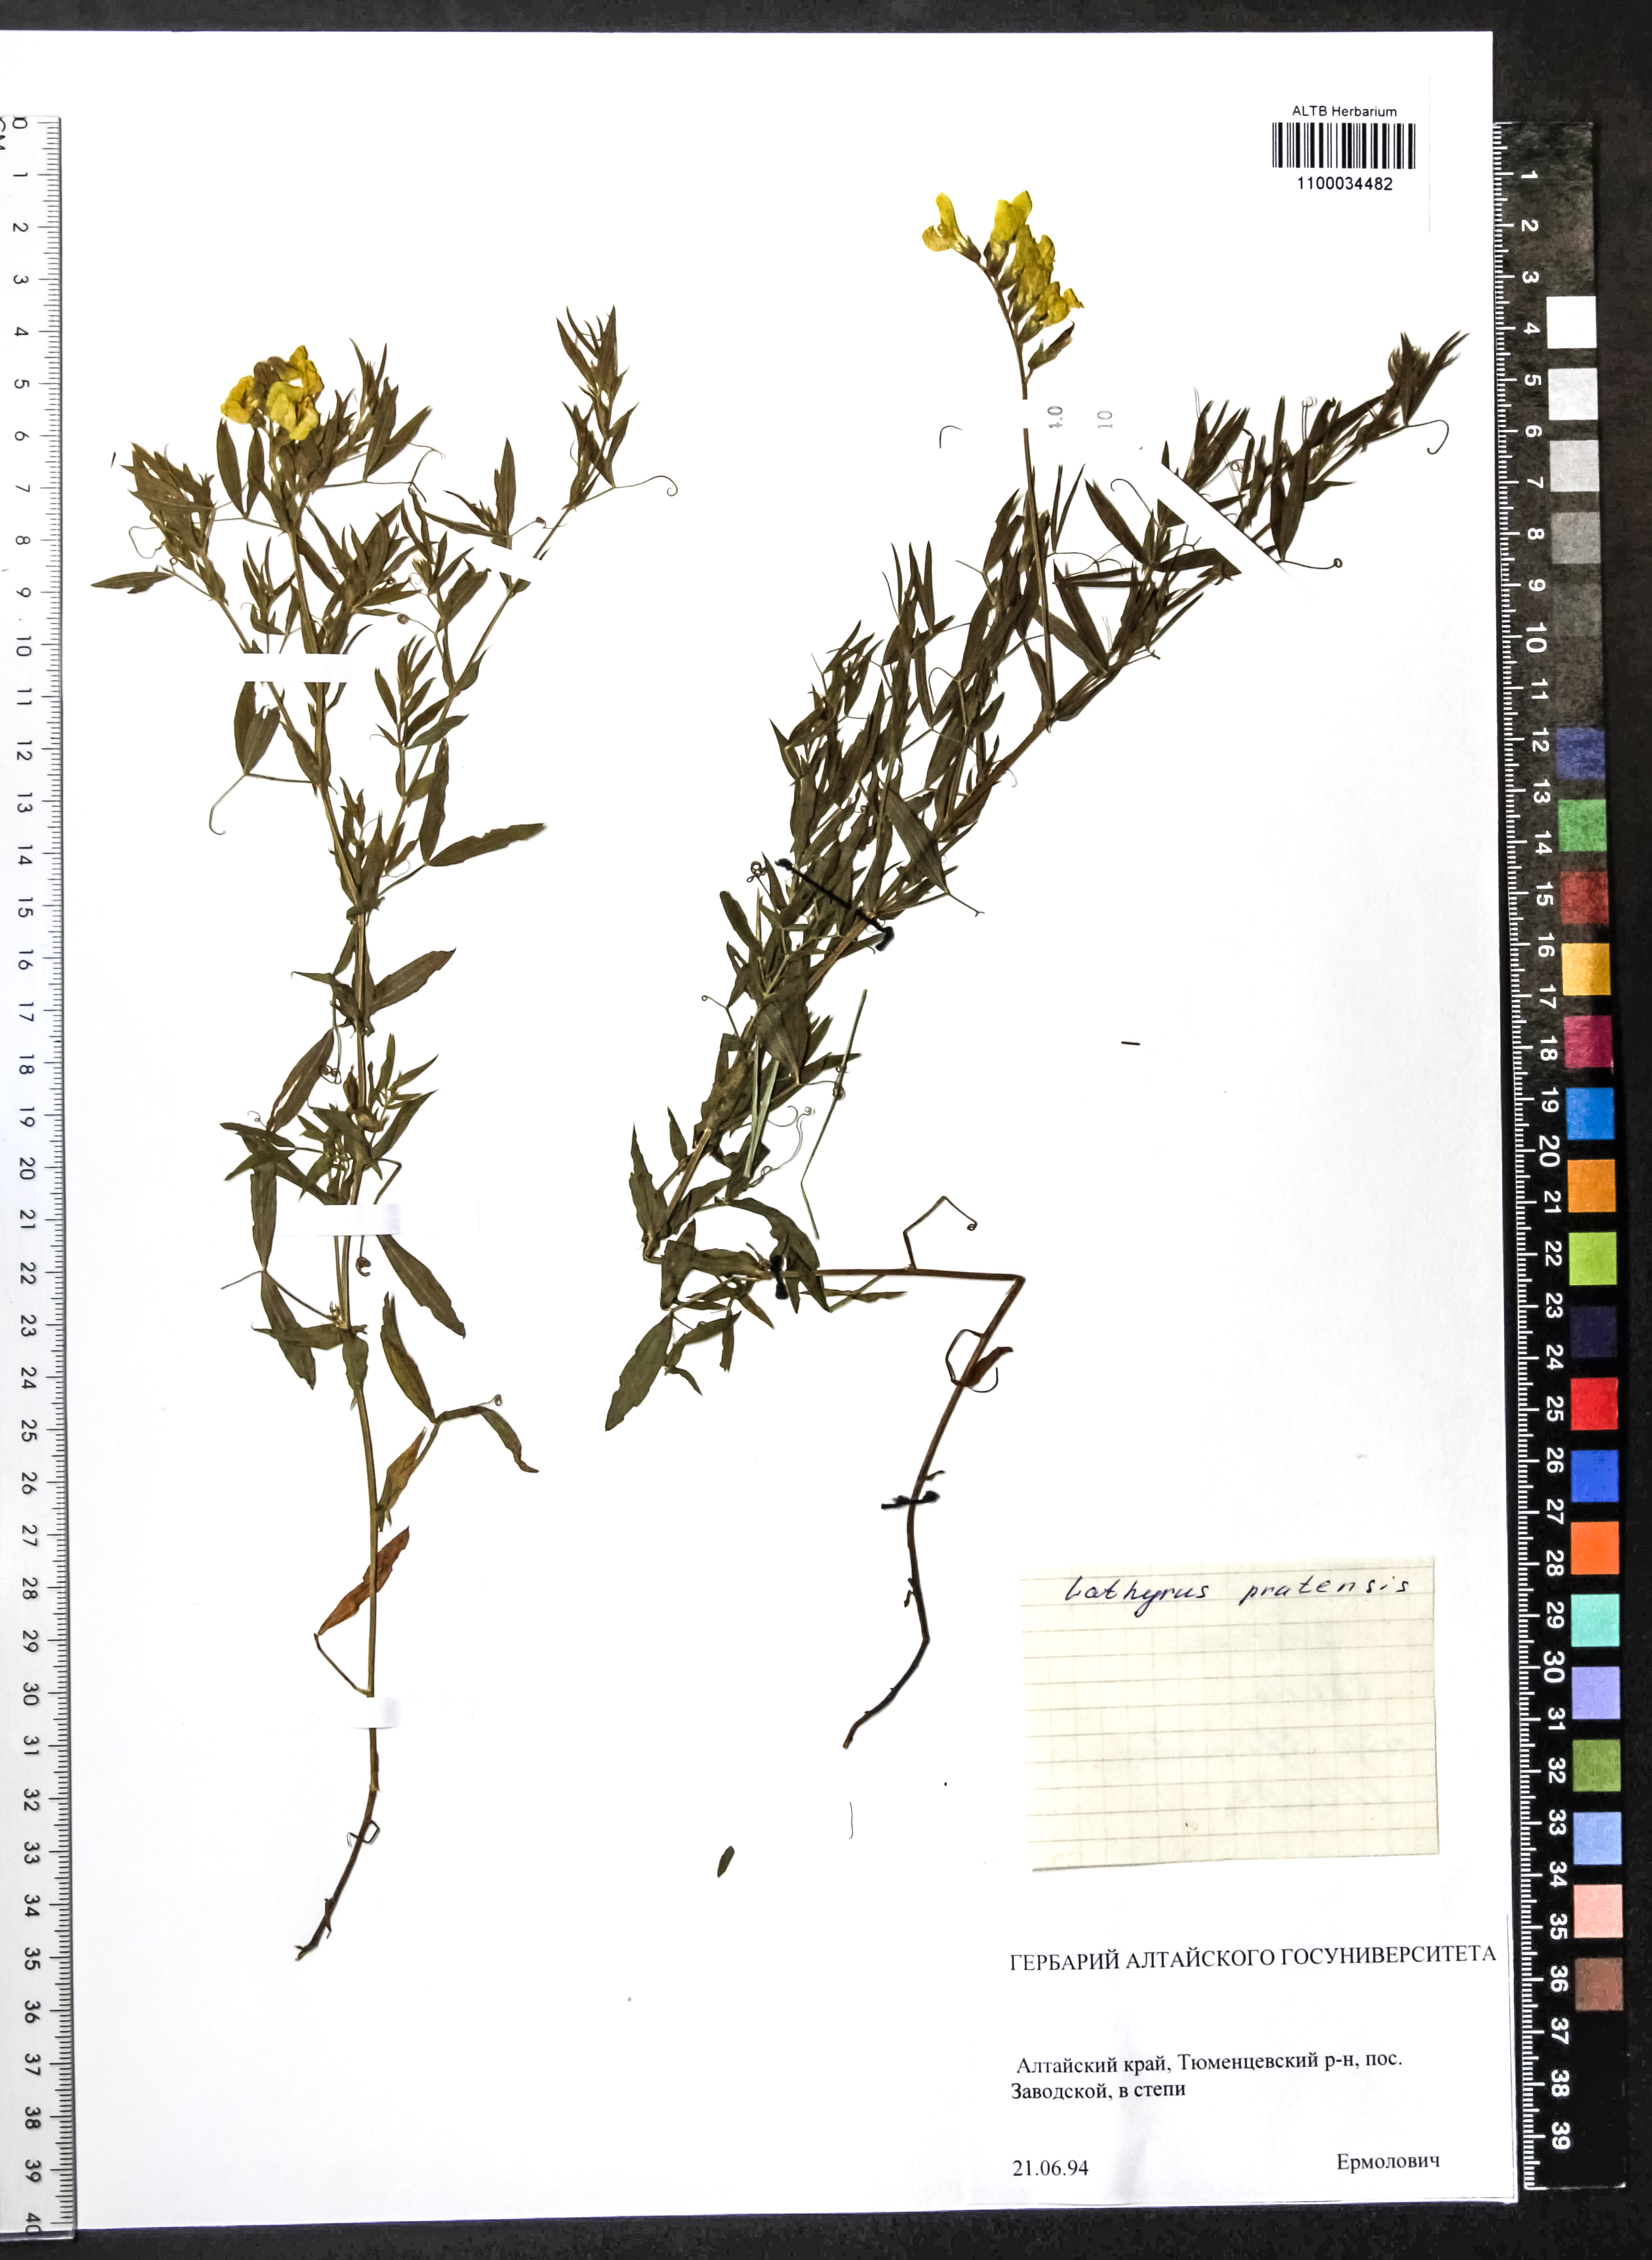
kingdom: Plantae
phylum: Tracheophyta
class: Magnoliopsida
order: Fabales
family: Fabaceae
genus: Lathyrus
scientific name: Lathyrus pratensis
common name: Meadow vetchling
